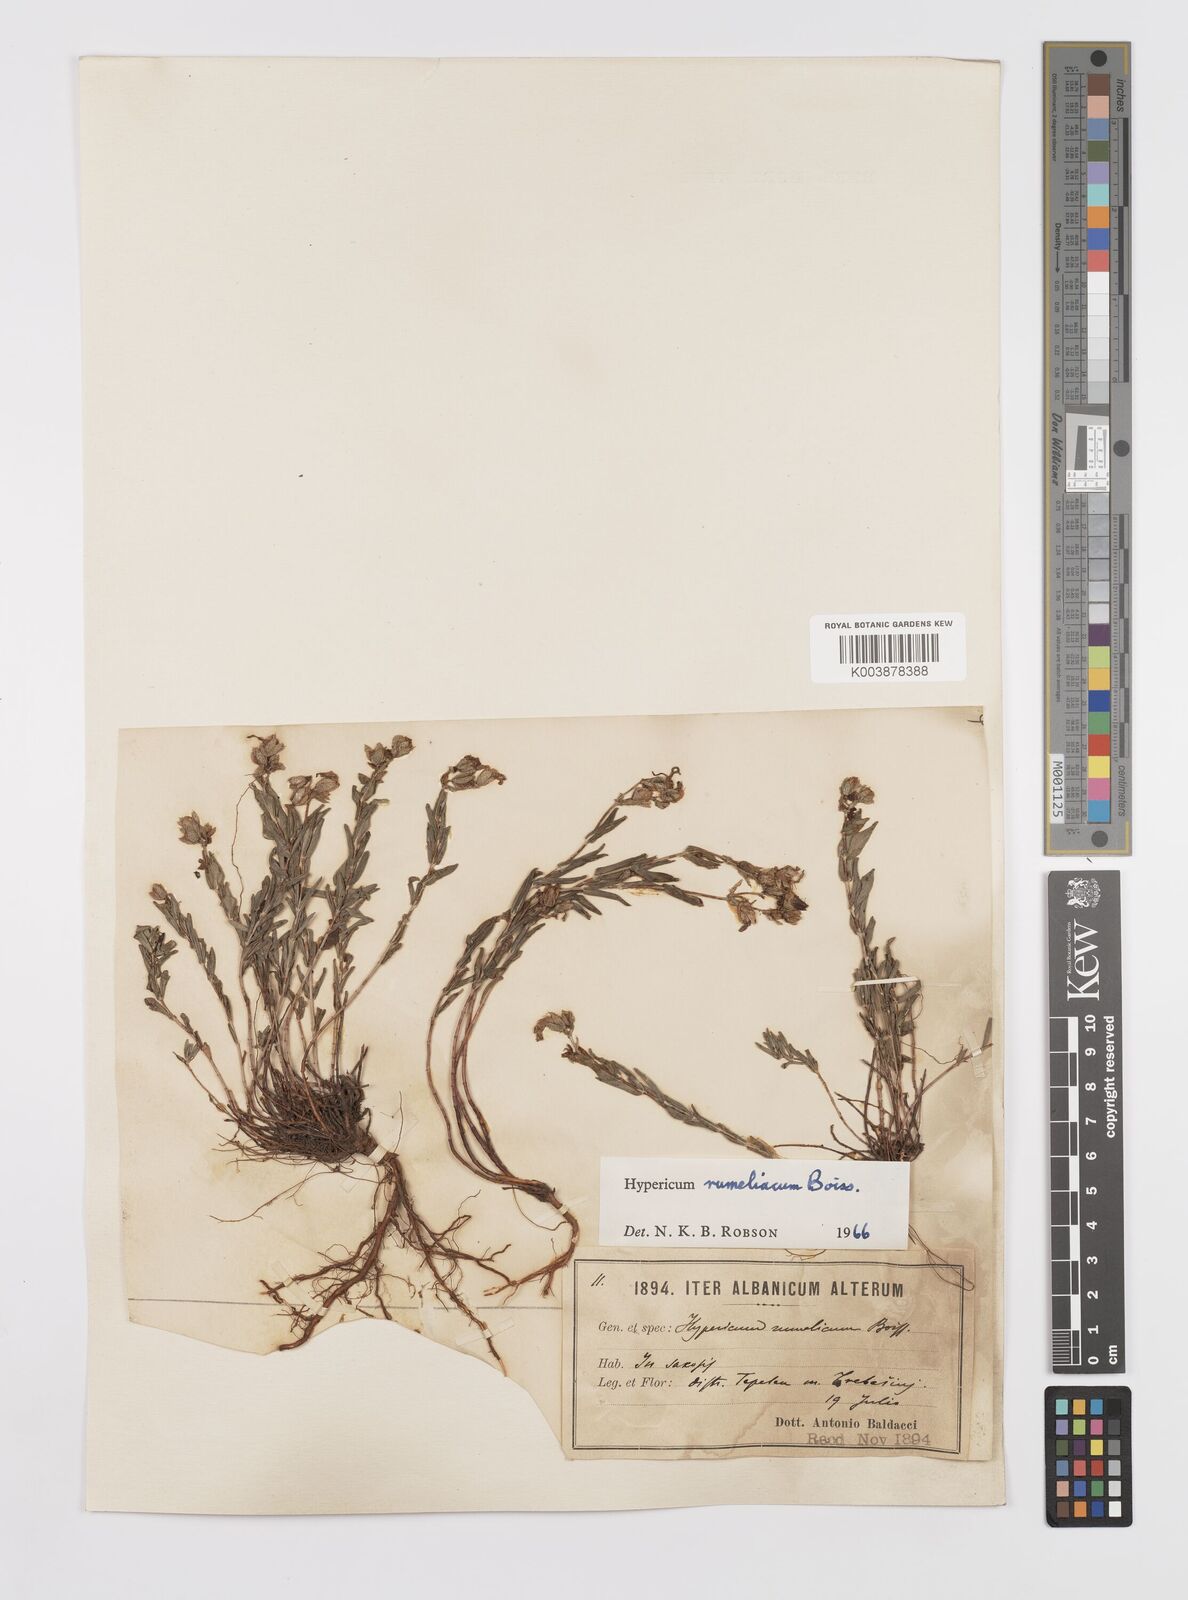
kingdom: Plantae
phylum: Tracheophyta
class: Magnoliopsida
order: Malpighiales
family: Hypericaceae
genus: Hypericum
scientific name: Hypericum rumeliacum
